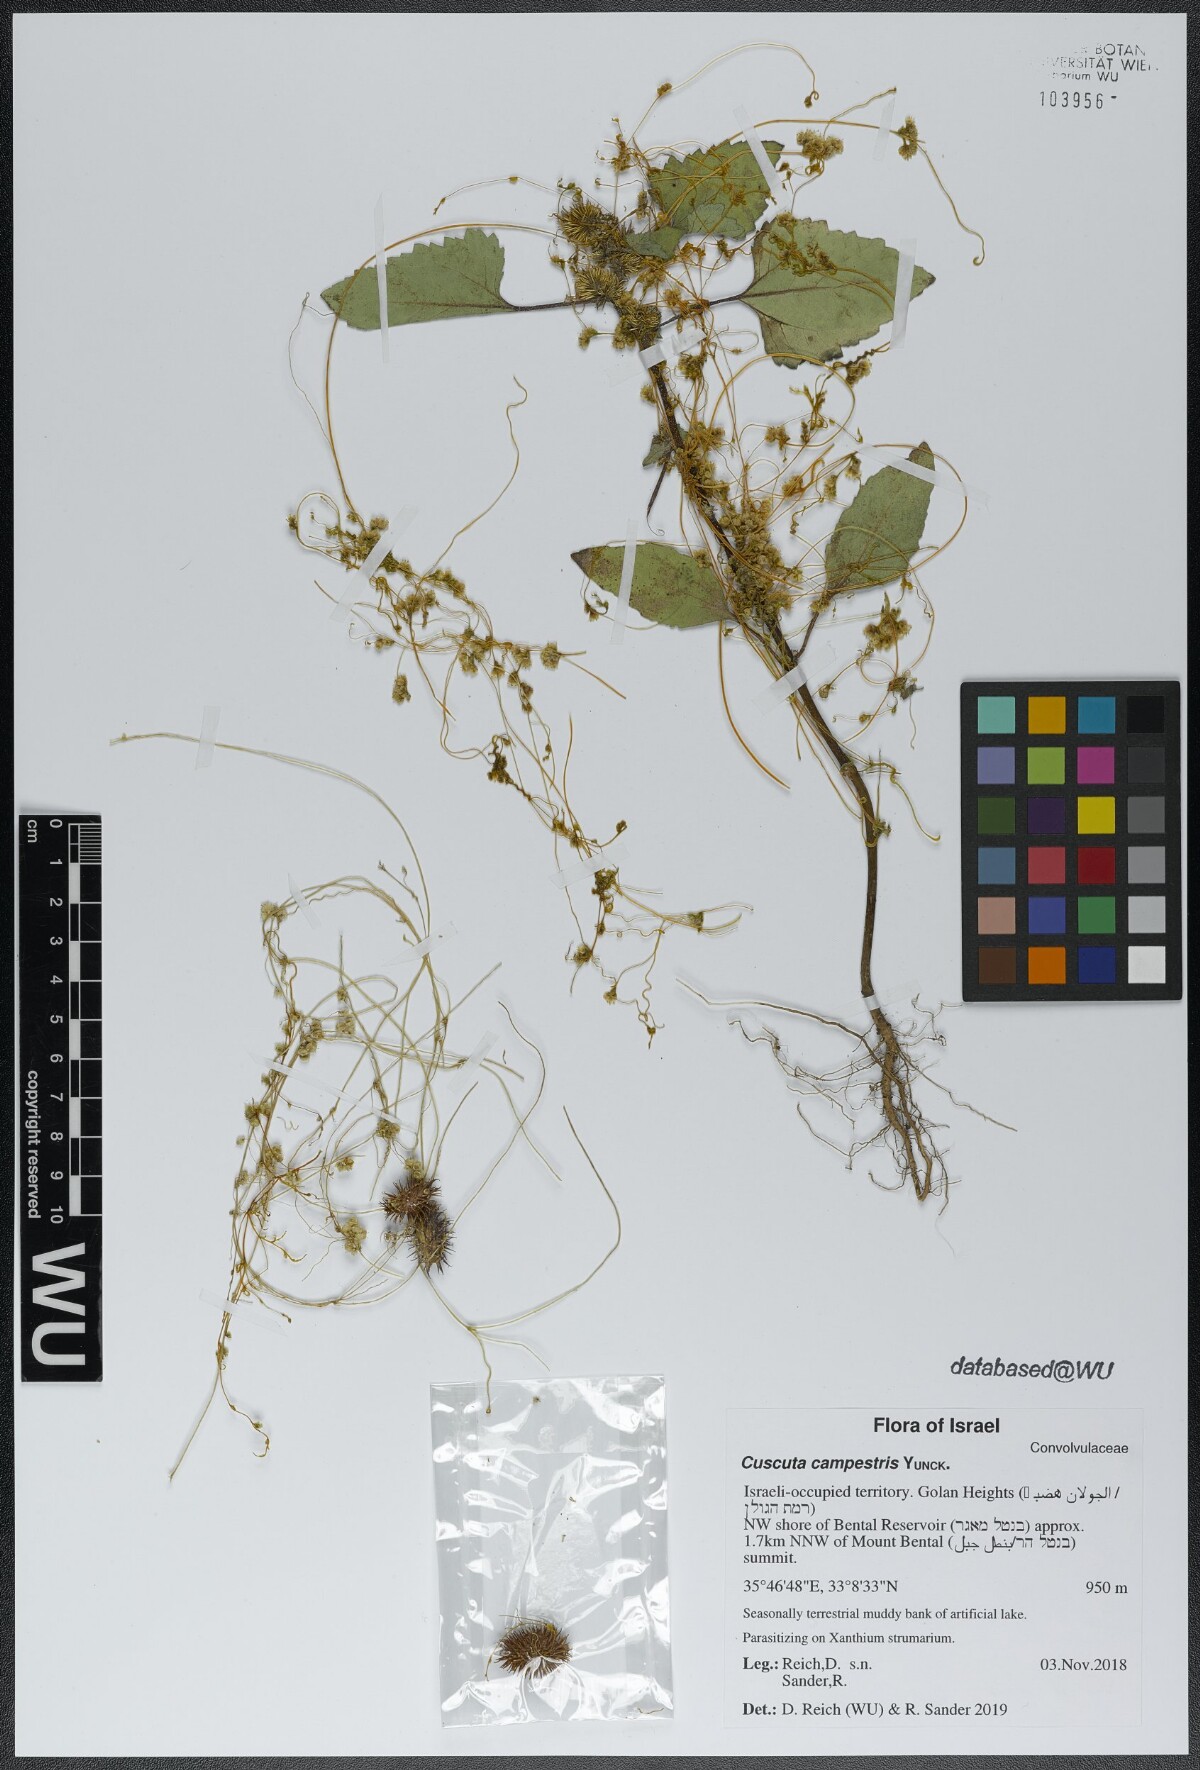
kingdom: Plantae
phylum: Tracheophyta
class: Magnoliopsida
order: Solanales
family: Convolvulaceae
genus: Cuscuta
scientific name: Cuscuta campestris
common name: Yellow dodder
